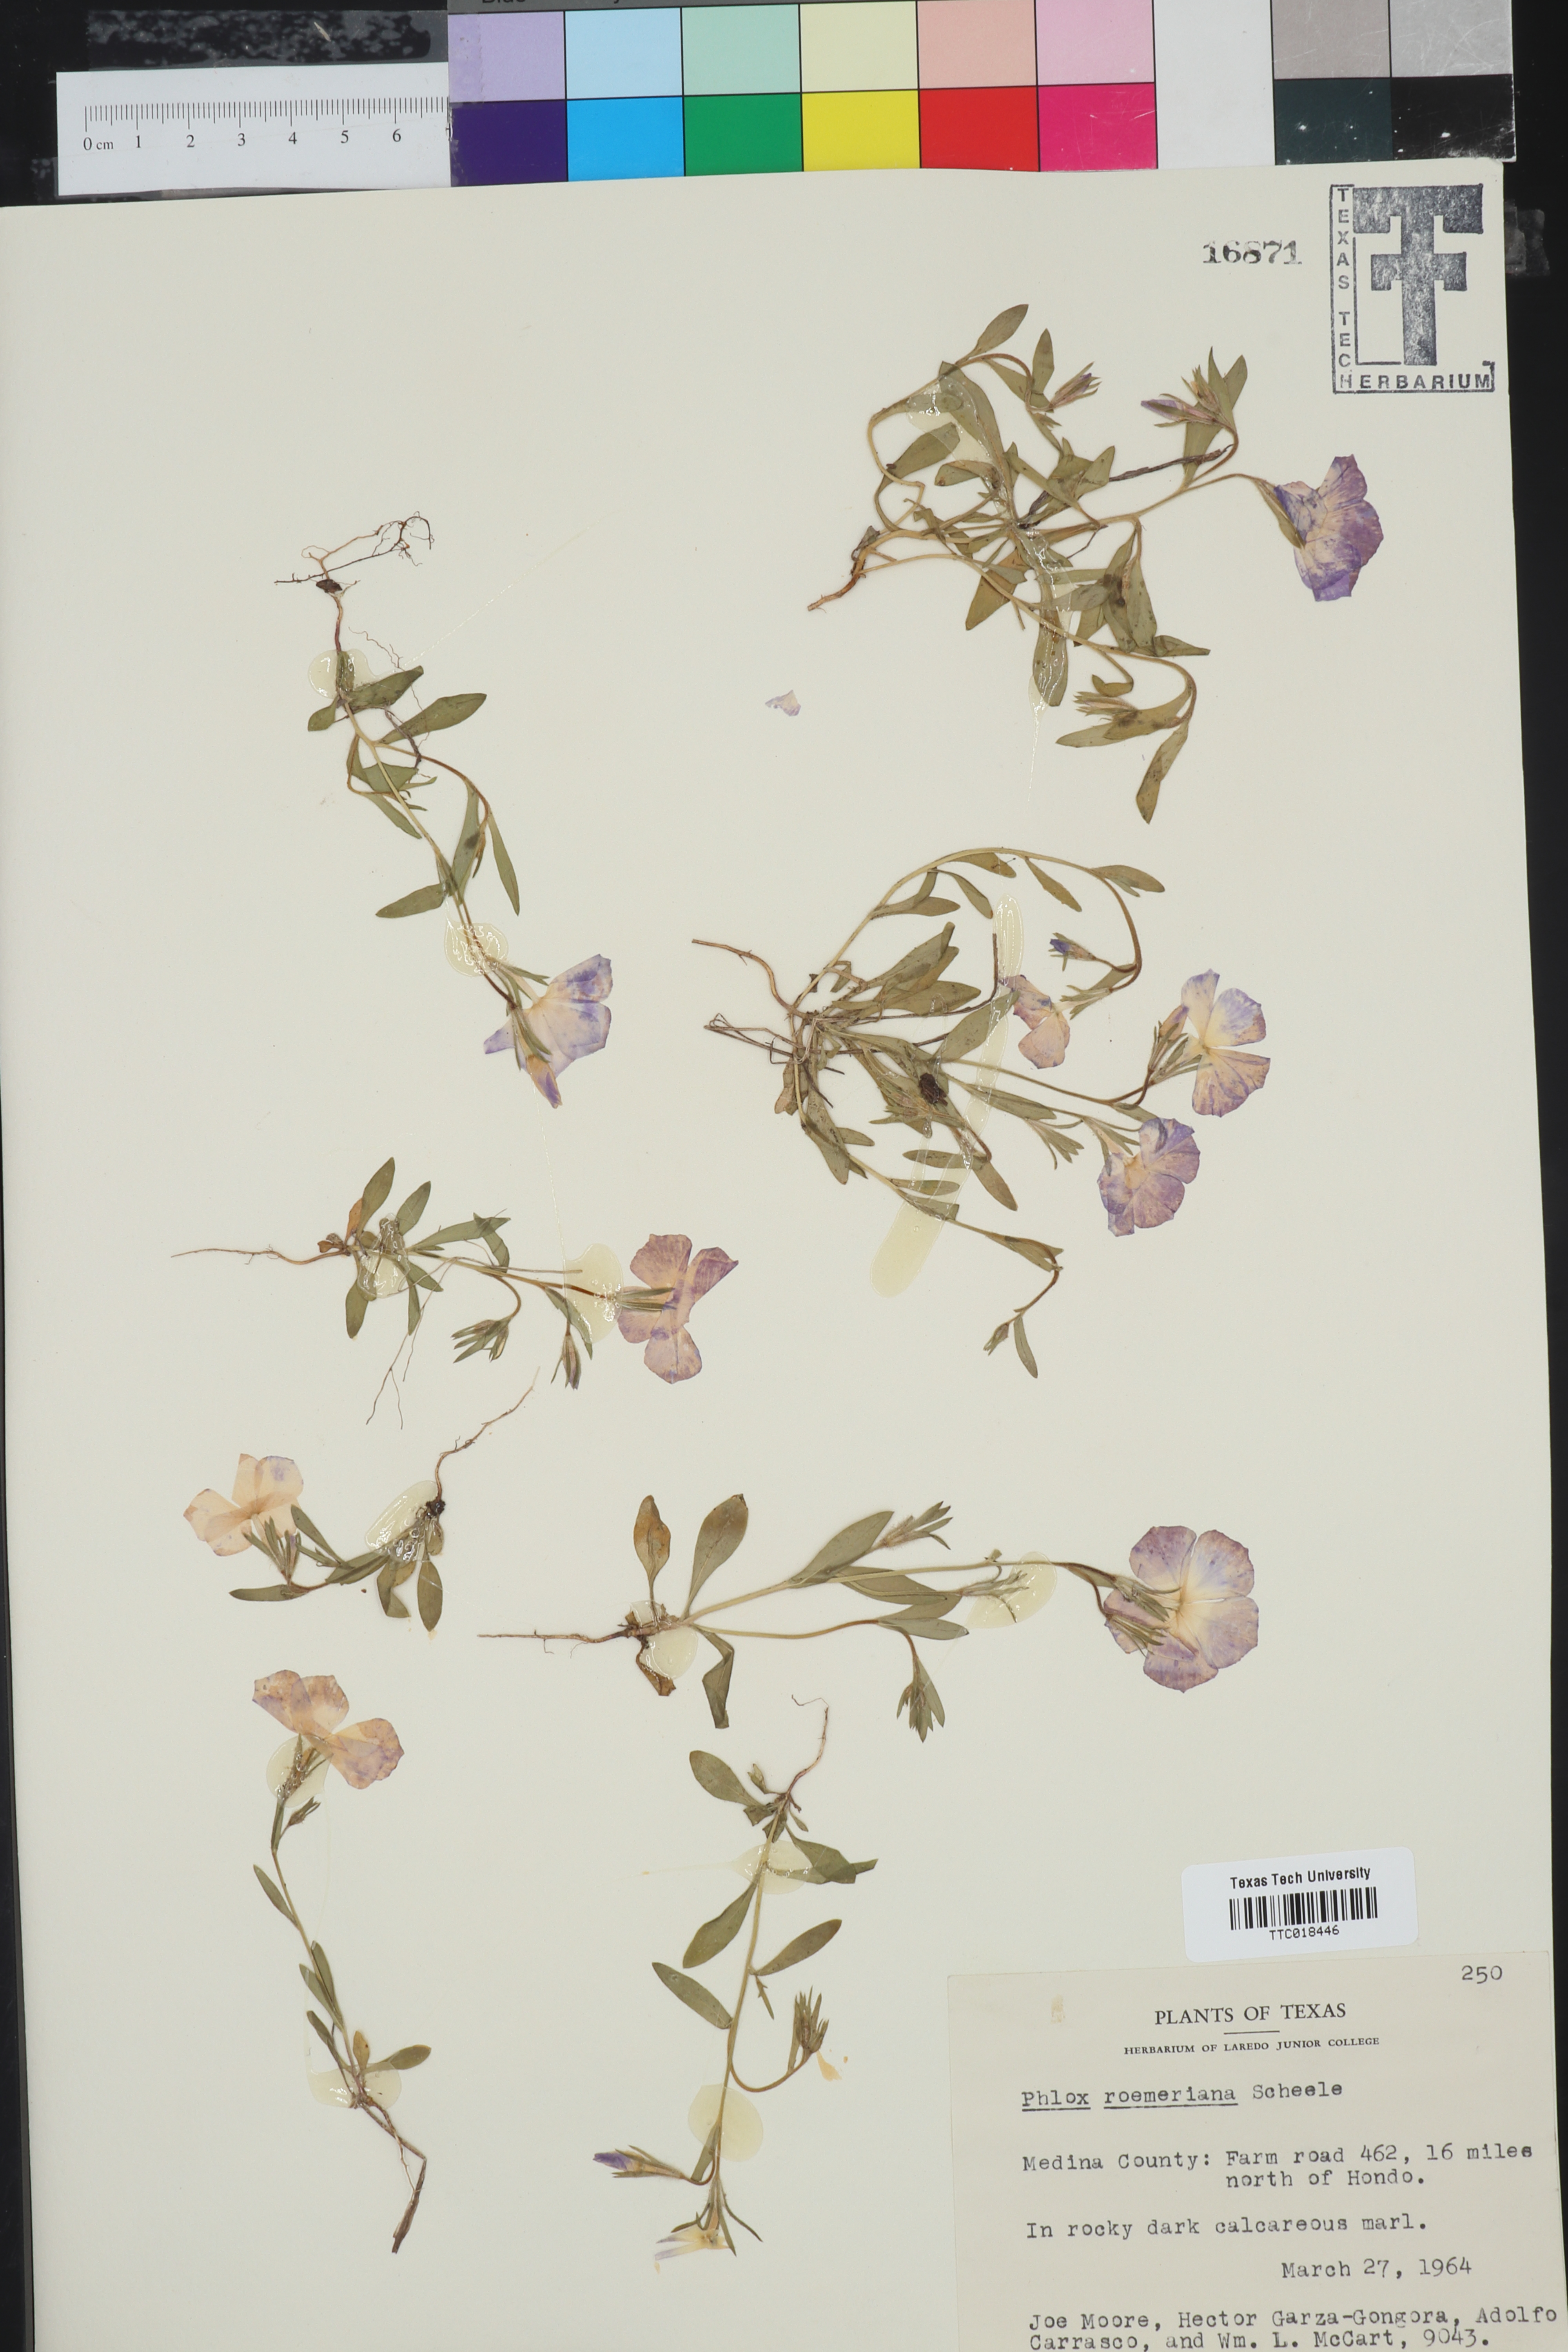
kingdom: Plantae
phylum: Tracheophyta
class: Magnoliopsida
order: Ericales
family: Polemoniaceae
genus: Phlox
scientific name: Phlox roemeriana
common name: Roemer's phlox
